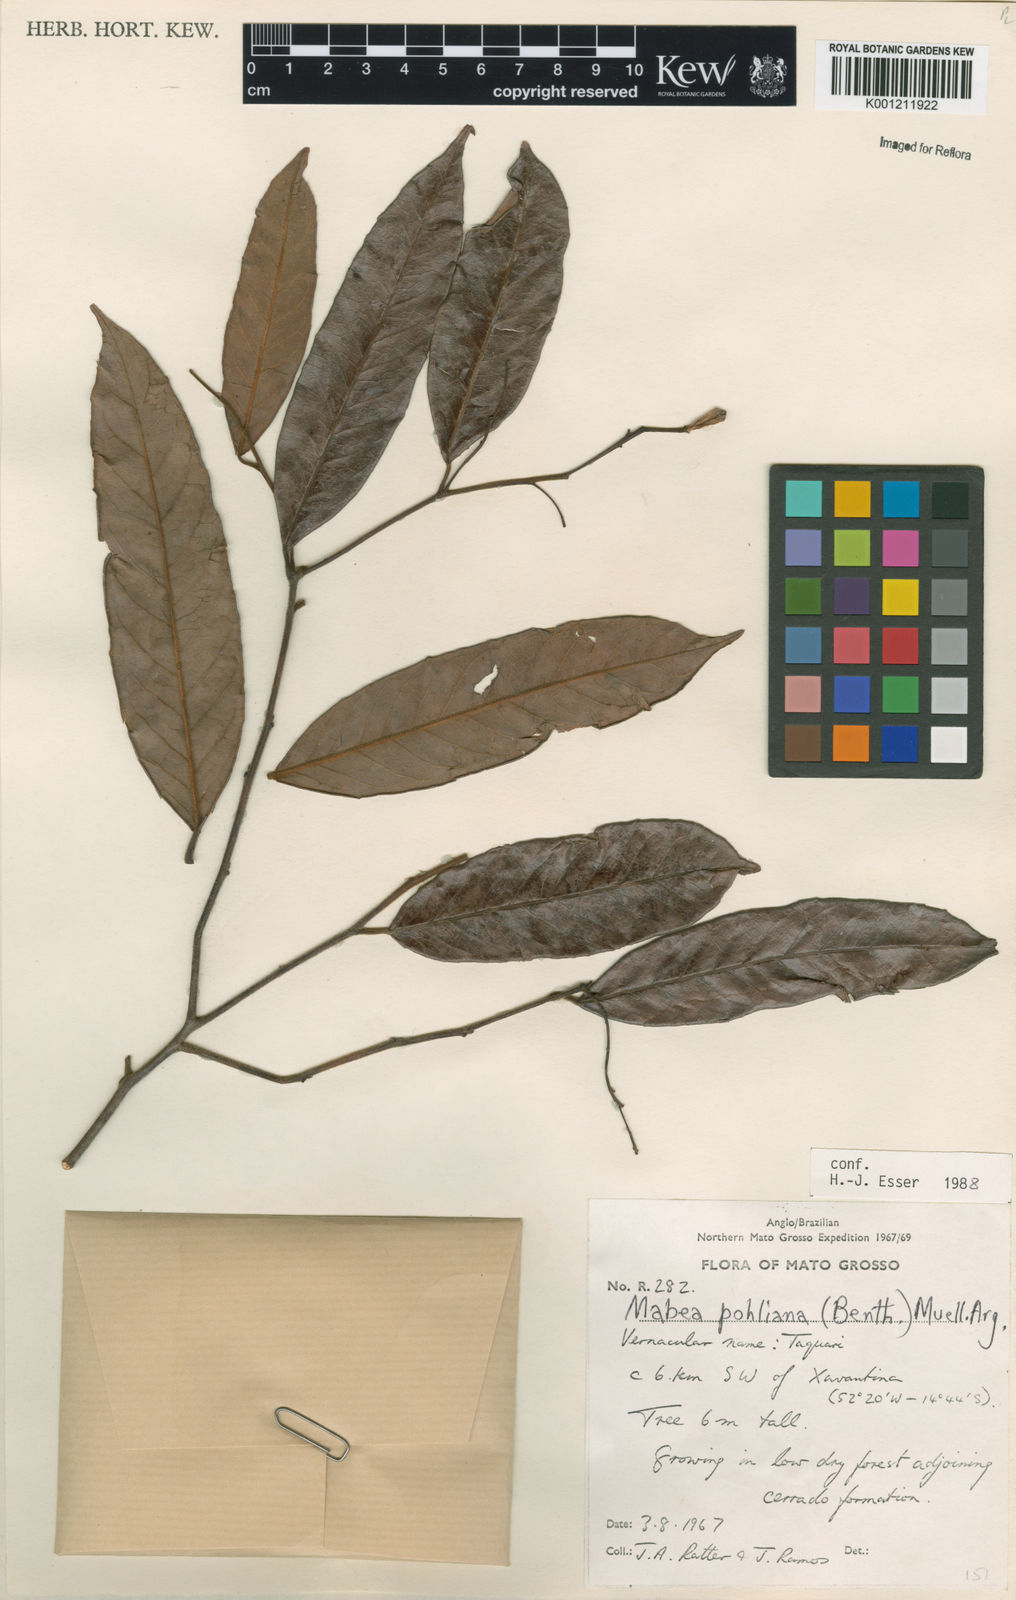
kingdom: Plantae
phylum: Tracheophyta
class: Magnoliopsida
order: Malpighiales
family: Euphorbiaceae
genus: Mabea
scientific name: Mabea
